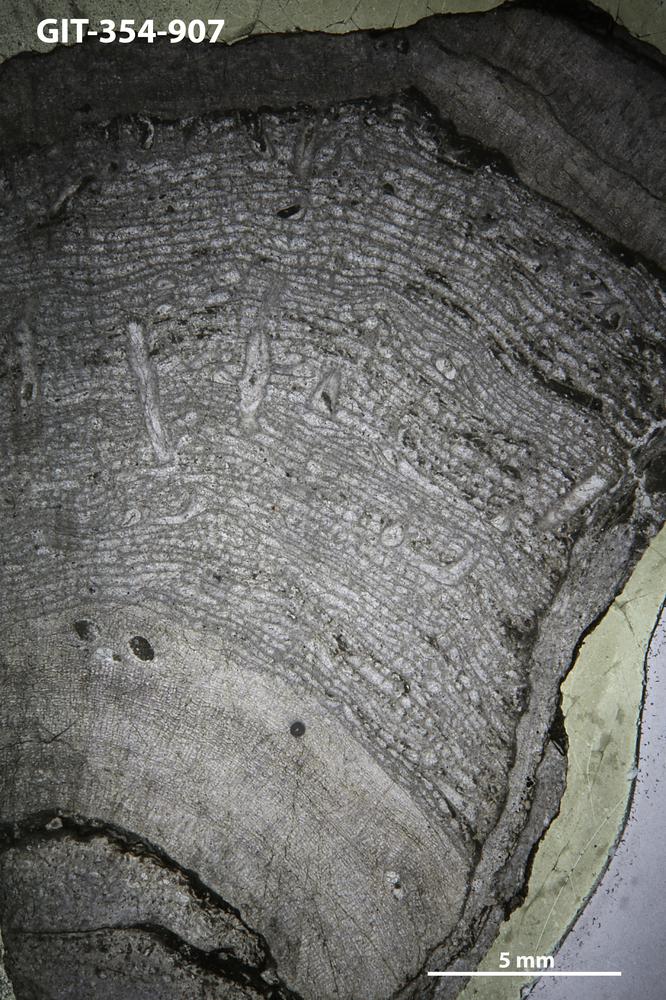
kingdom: Animalia
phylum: Porifera
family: Actinostromatidae
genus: Plectostroma
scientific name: Plectostroma
